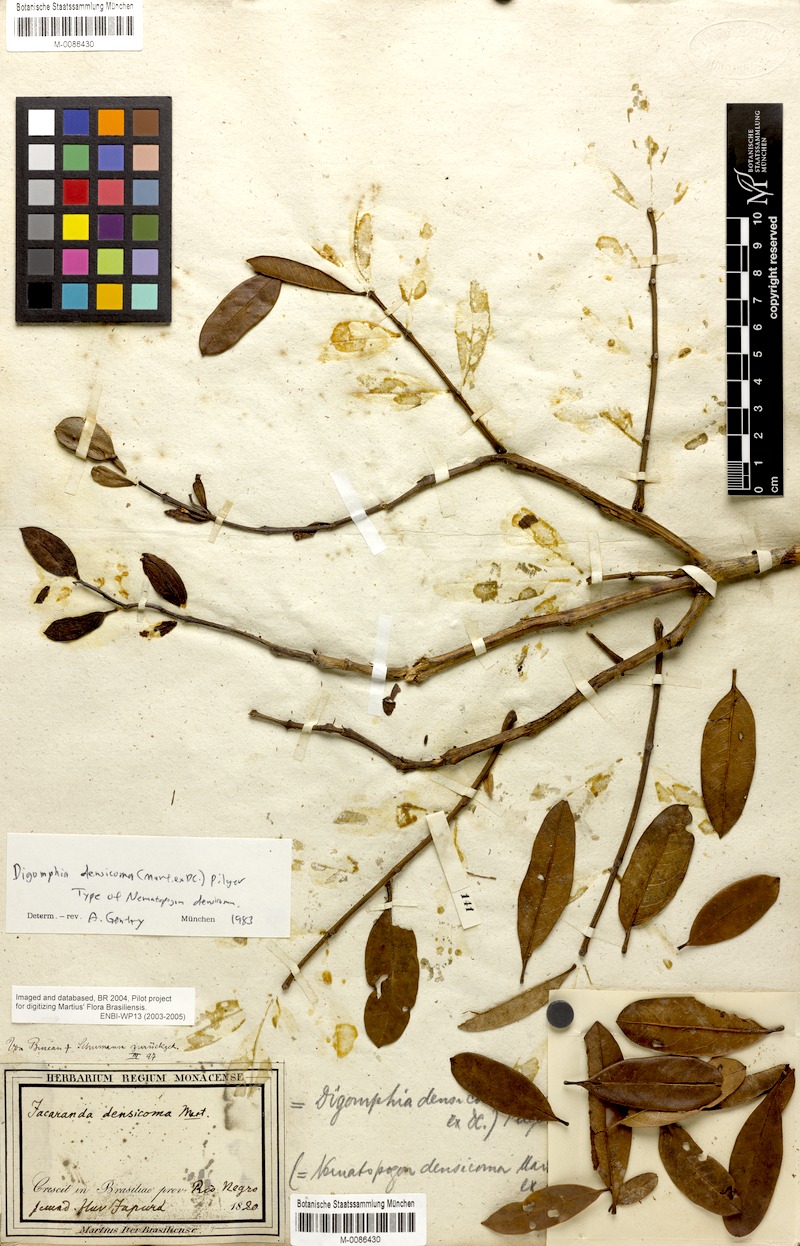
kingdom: Plantae
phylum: Tracheophyta
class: Magnoliopsida
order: Lamiales
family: Bignoniaceae
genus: Digomphia
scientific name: Digomphia densicoma
